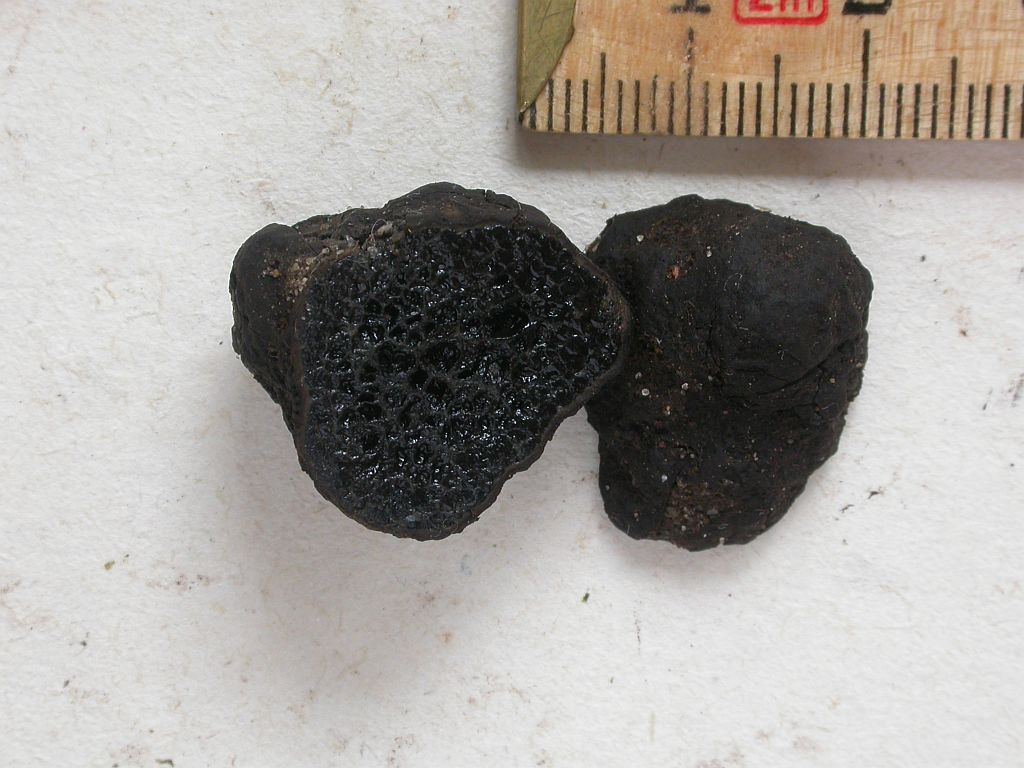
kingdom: Fungi
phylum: Basidiomycota
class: Agaricomycetes
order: Boletales
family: Paxillaceae
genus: Melanogaster
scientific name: Melanogaster ambiguus
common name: lille slimtrøffel
